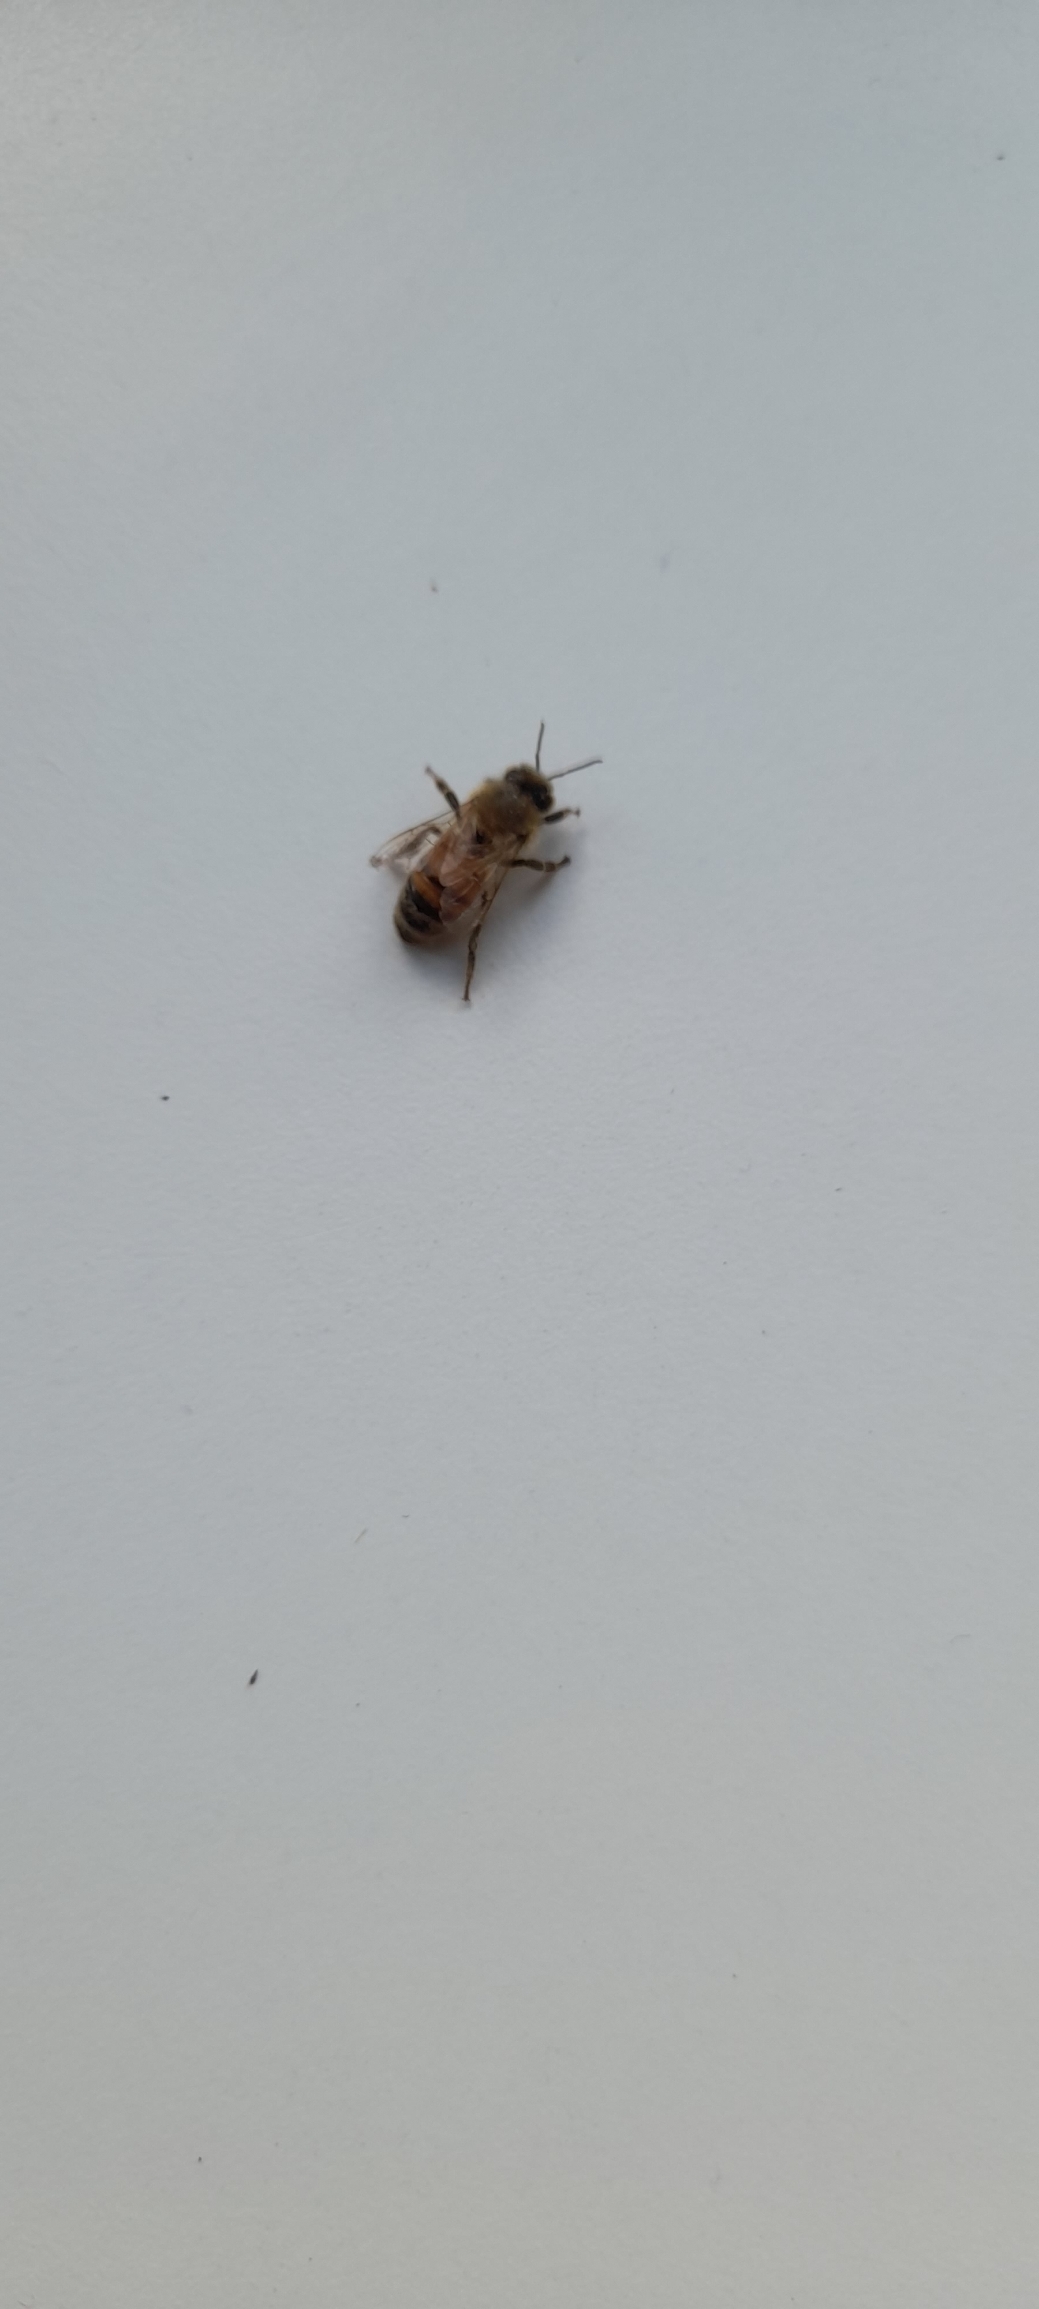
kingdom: Animalia
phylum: Arthropoda
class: Insecta
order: Hymenoptera
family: Apidae
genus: Apis
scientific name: Apis mellifera
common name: Honningbi
